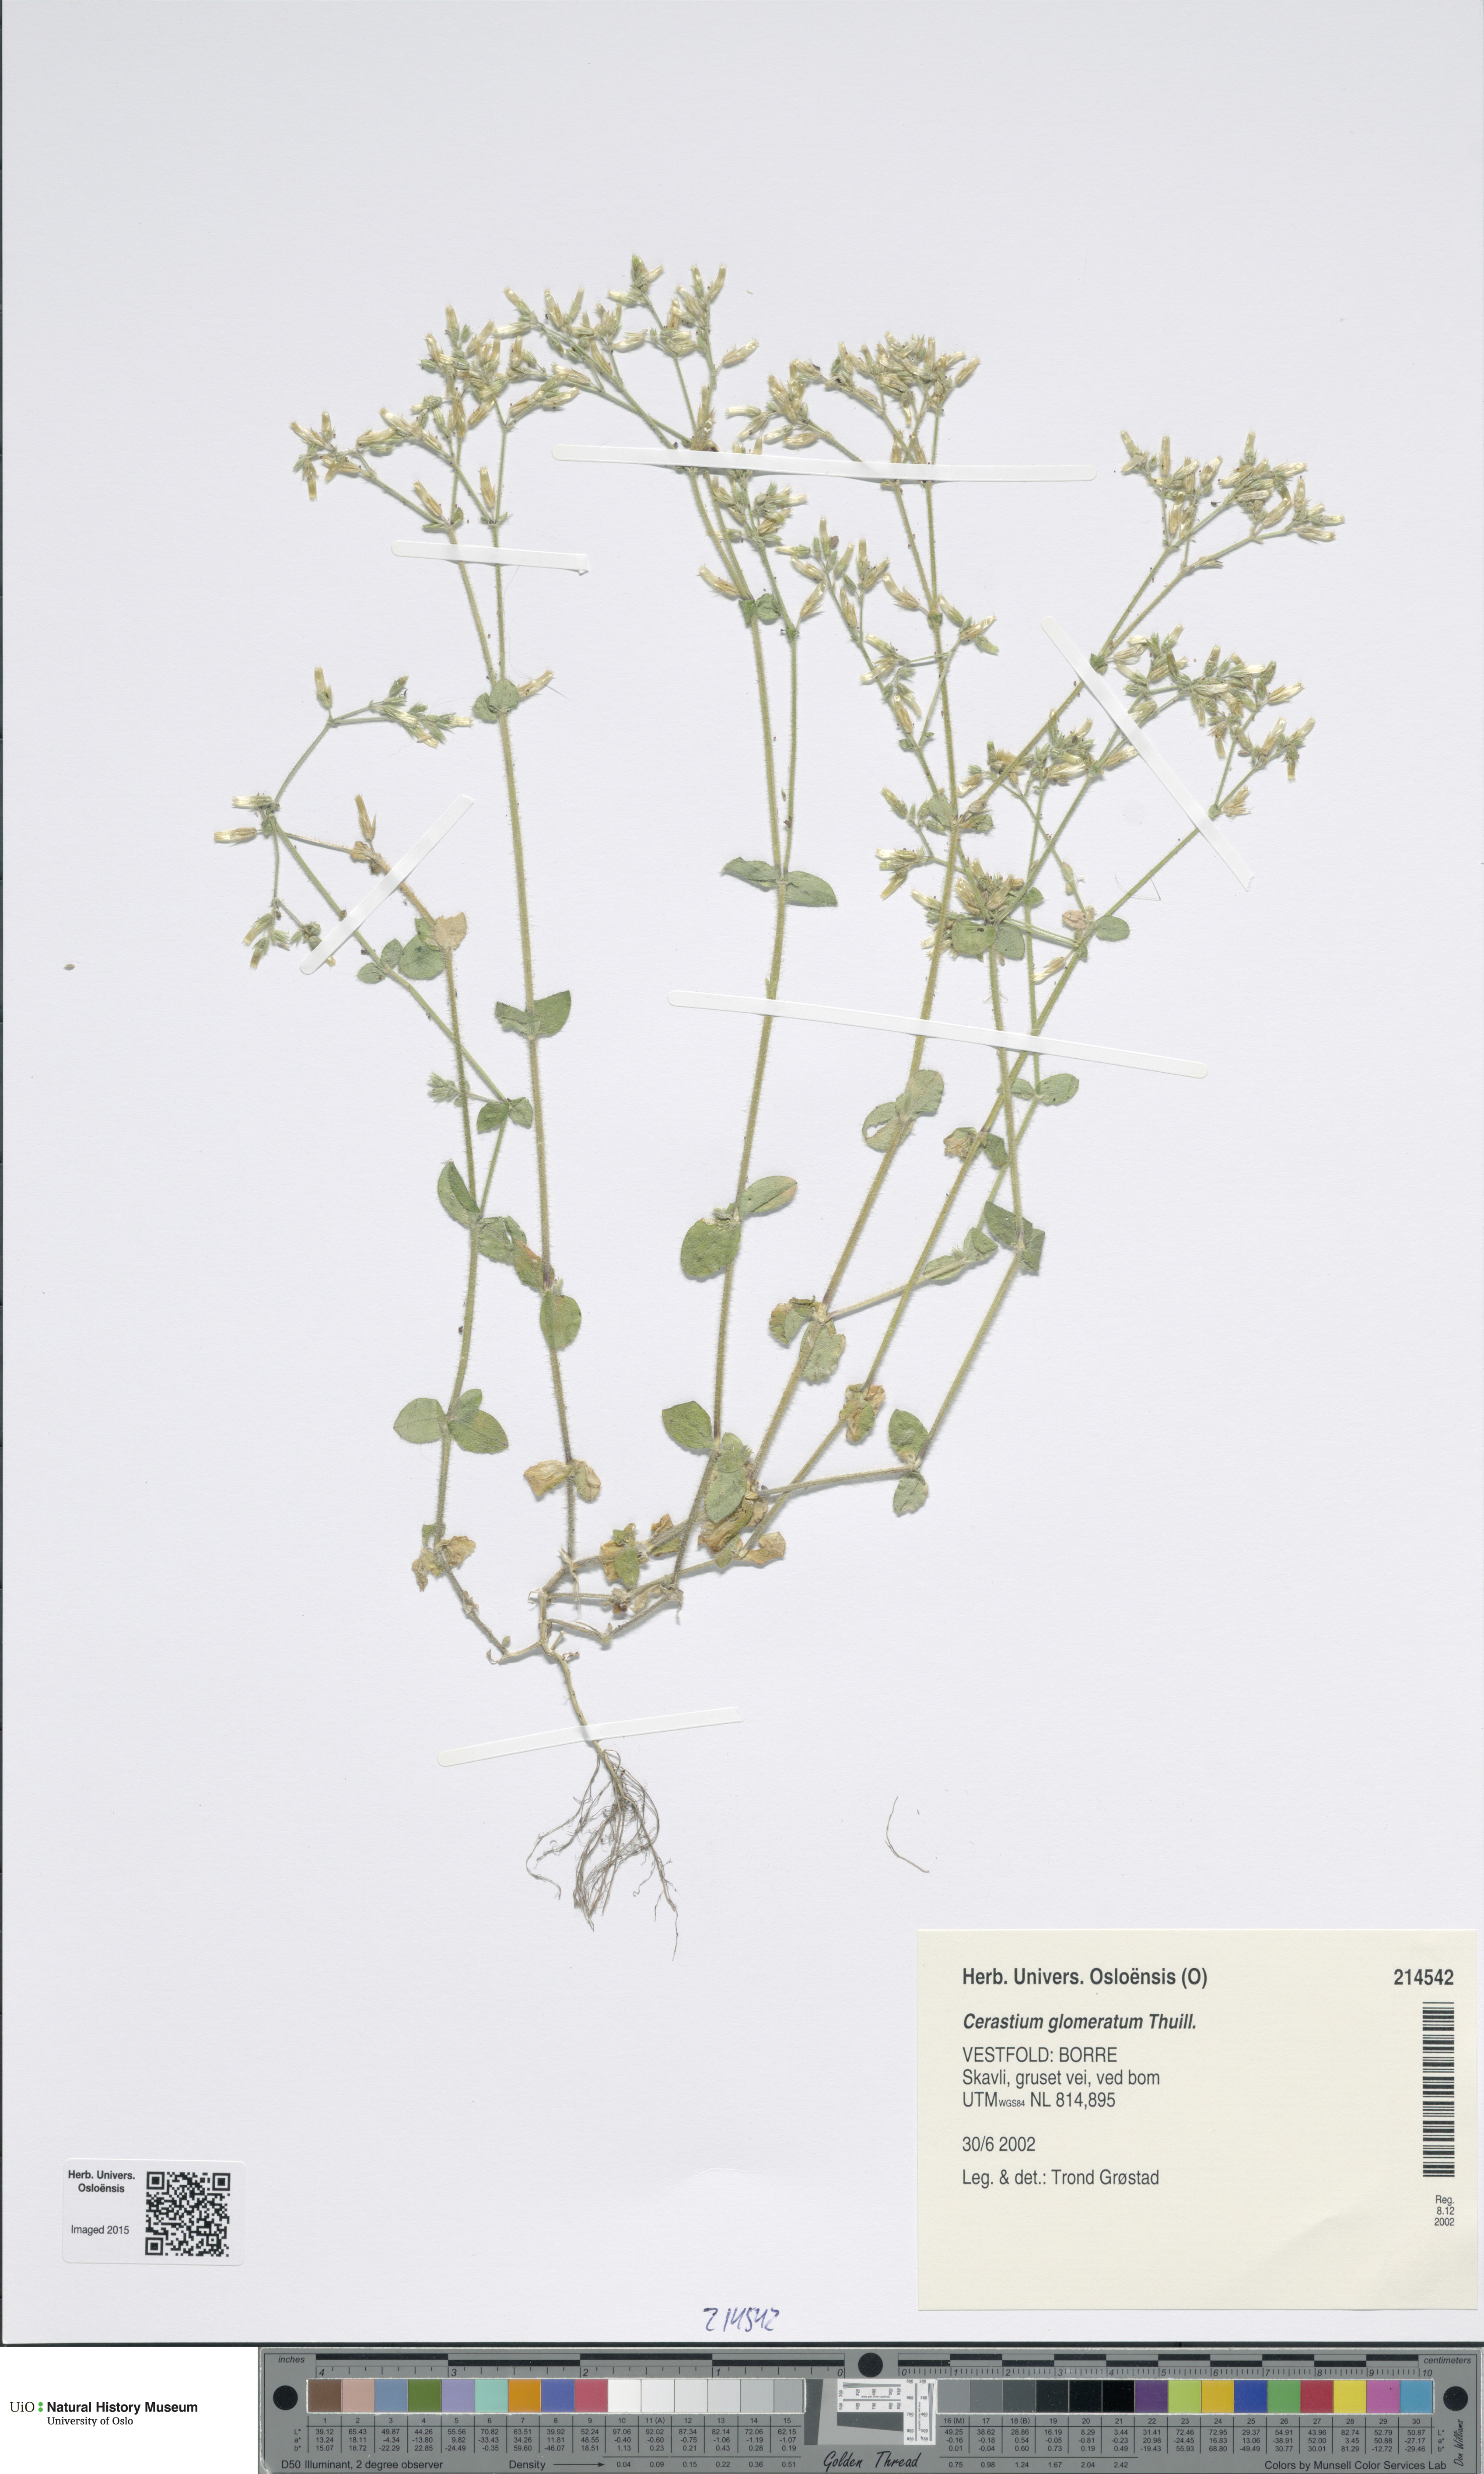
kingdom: Plantae
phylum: Tracheophyta
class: Magnoliopsida
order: Caryophyllales
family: Caryophyllaceae
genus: Cerastium
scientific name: Cerastium glomeratum
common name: Sticky chickweed
